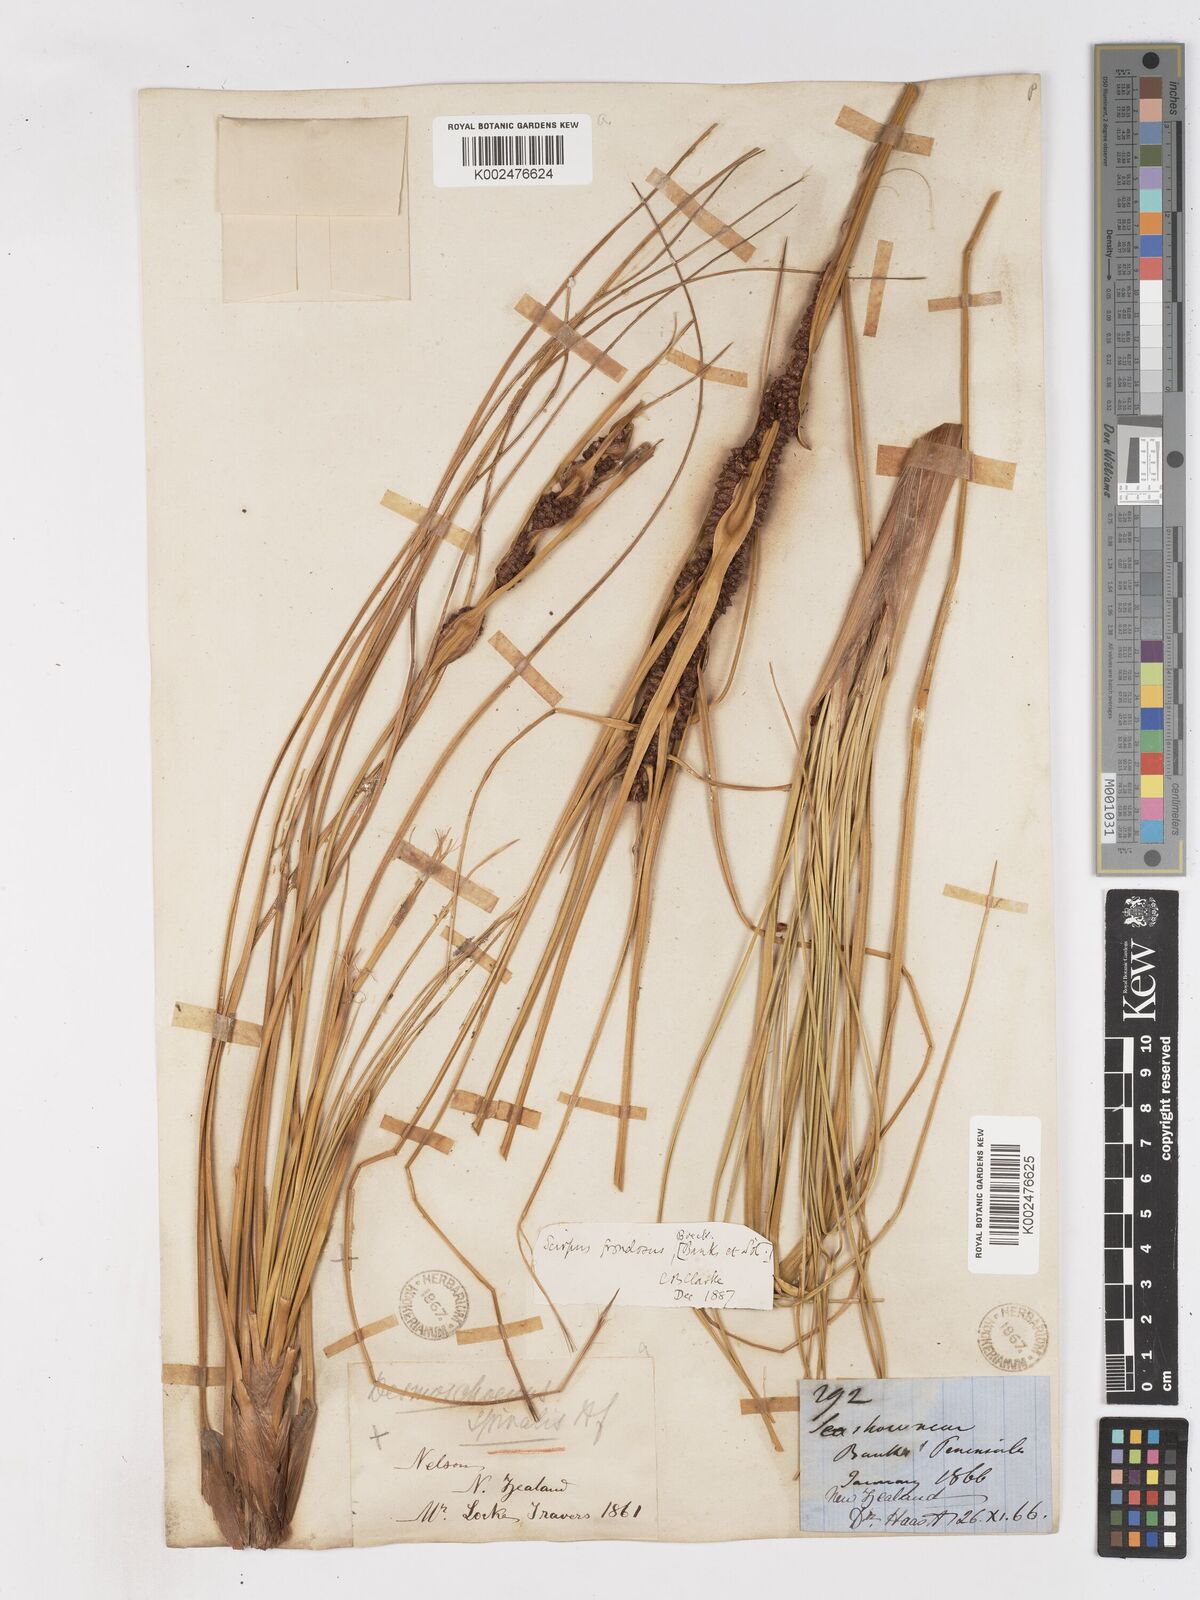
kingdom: Plantae
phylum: Tracheophyta
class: Liliopsida
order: Poales
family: Cyperaceae
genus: Ficinia
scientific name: Ficinia
